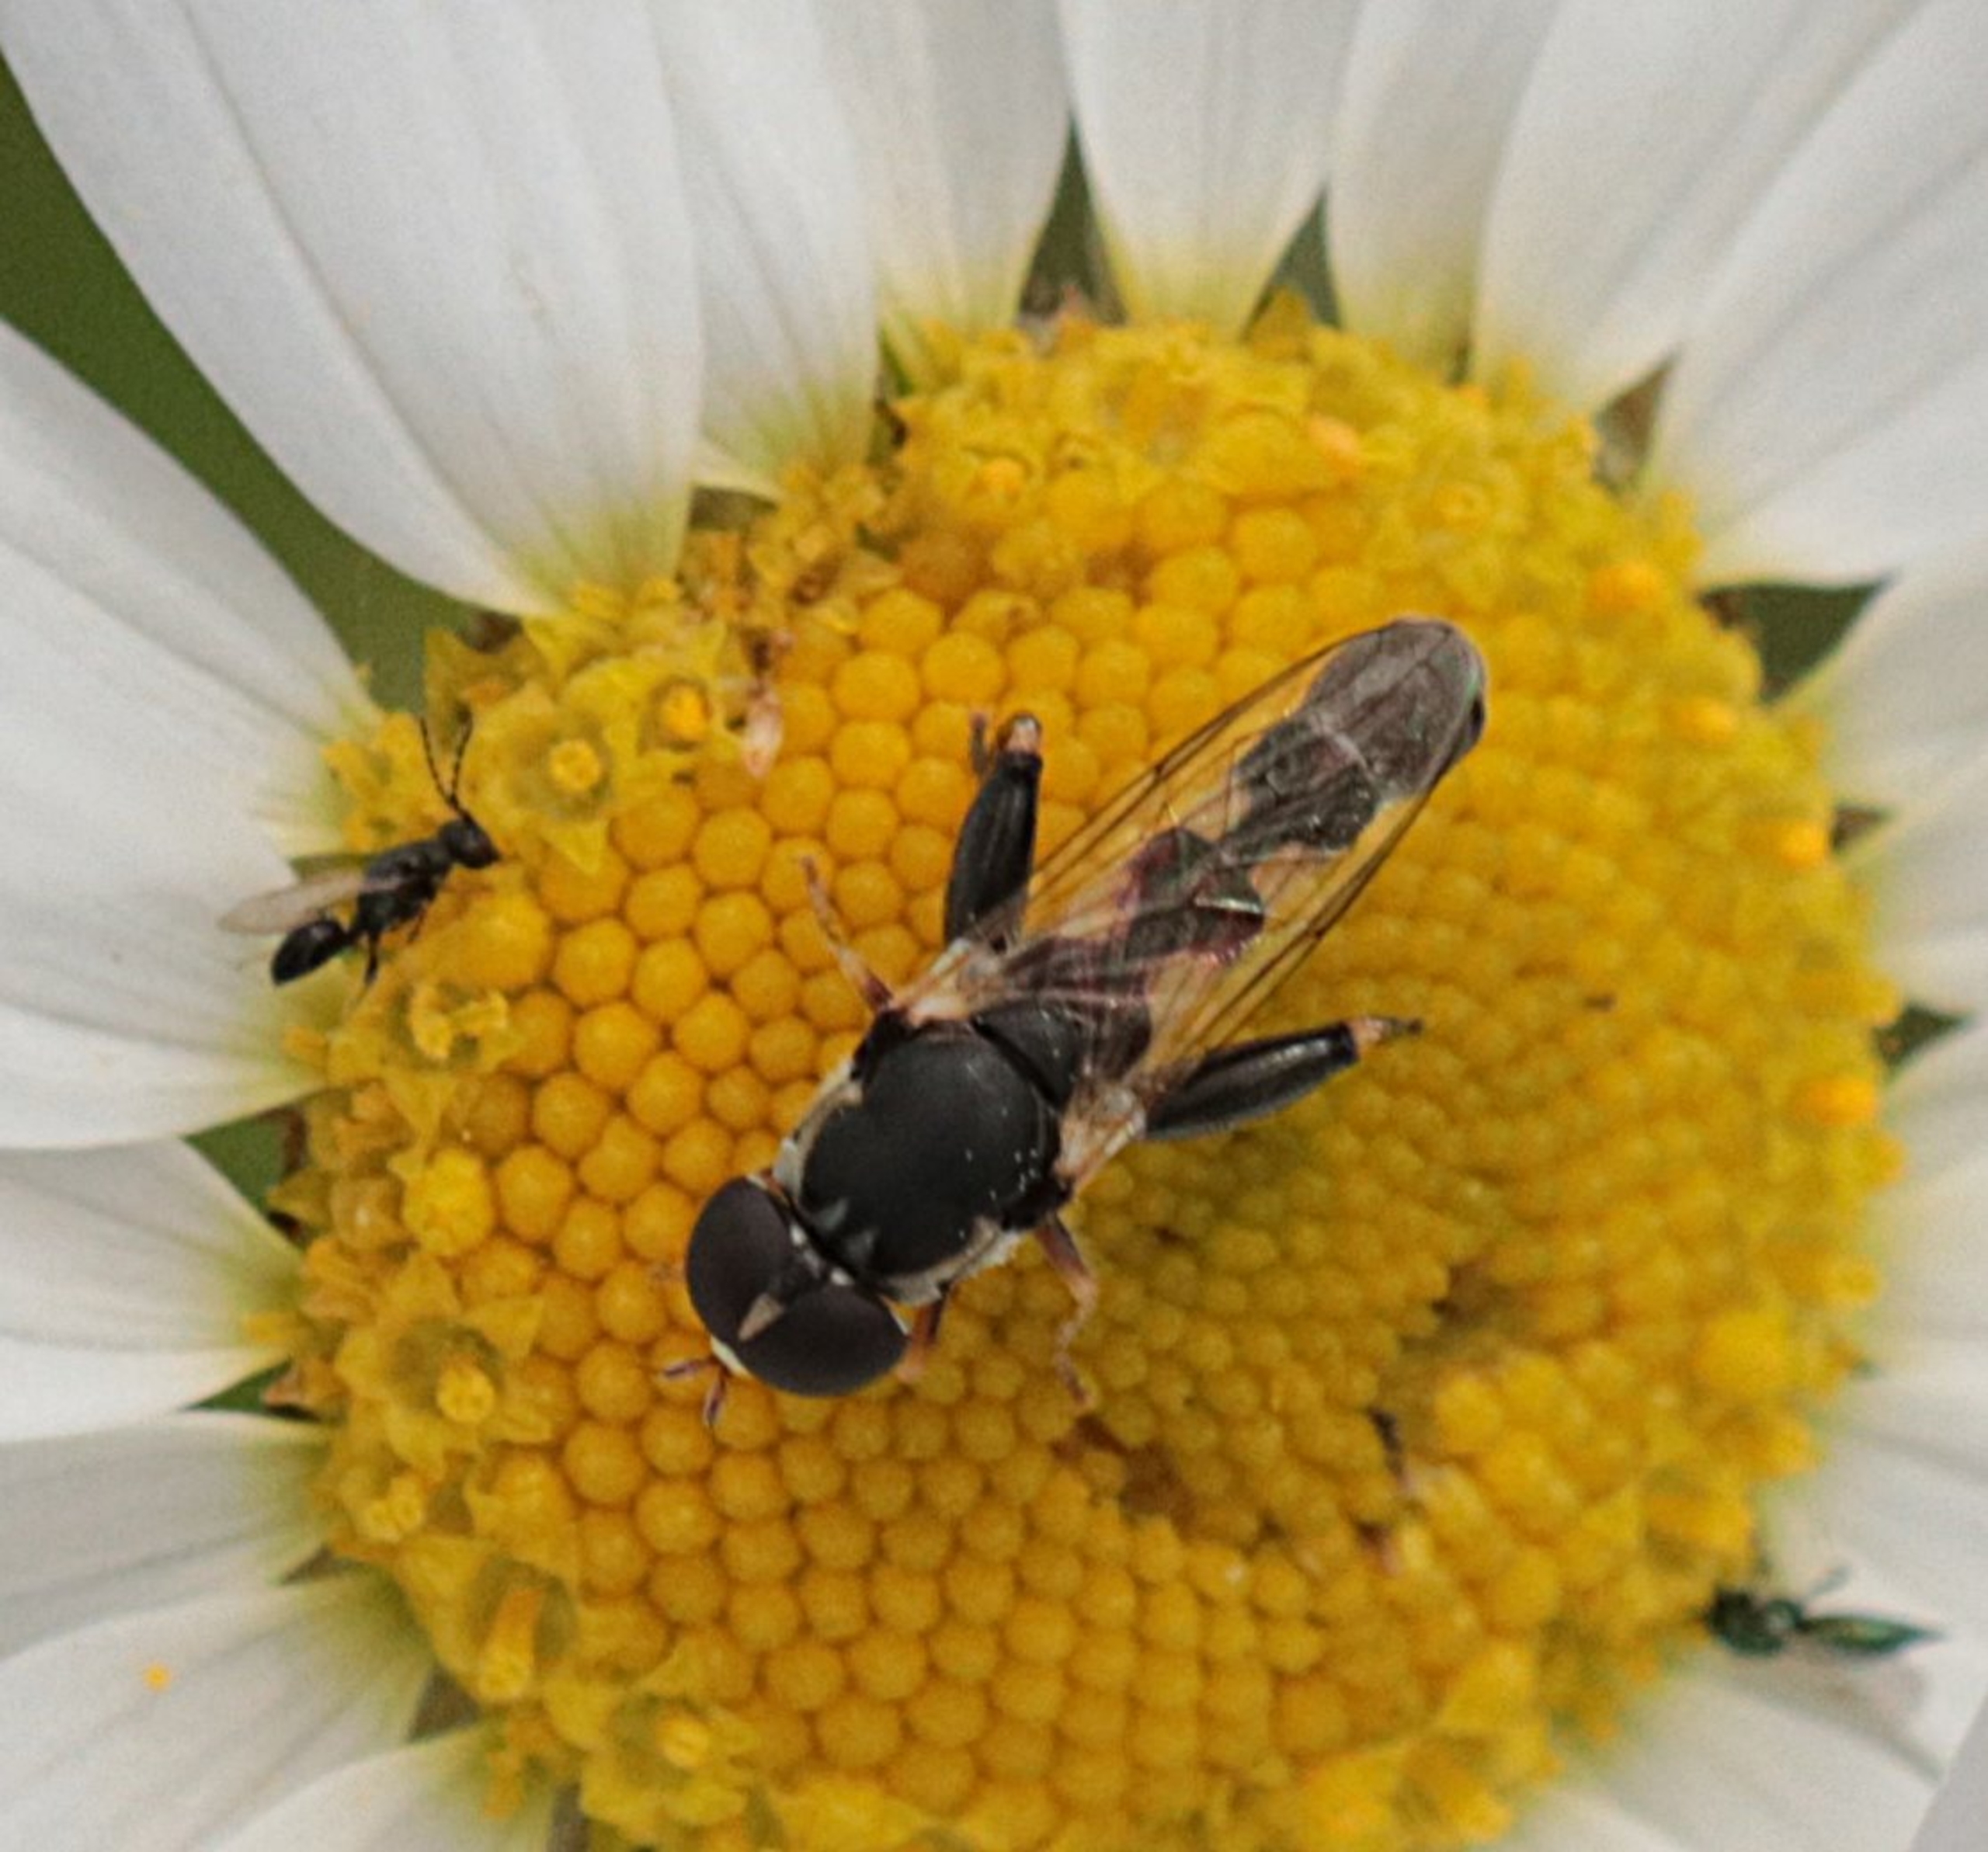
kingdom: Animalia
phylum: Arthropoda
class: Insecta
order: Diptera
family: Syrphidae
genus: Syritta
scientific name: Syritta pipiens
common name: Kompost-svirreflue
